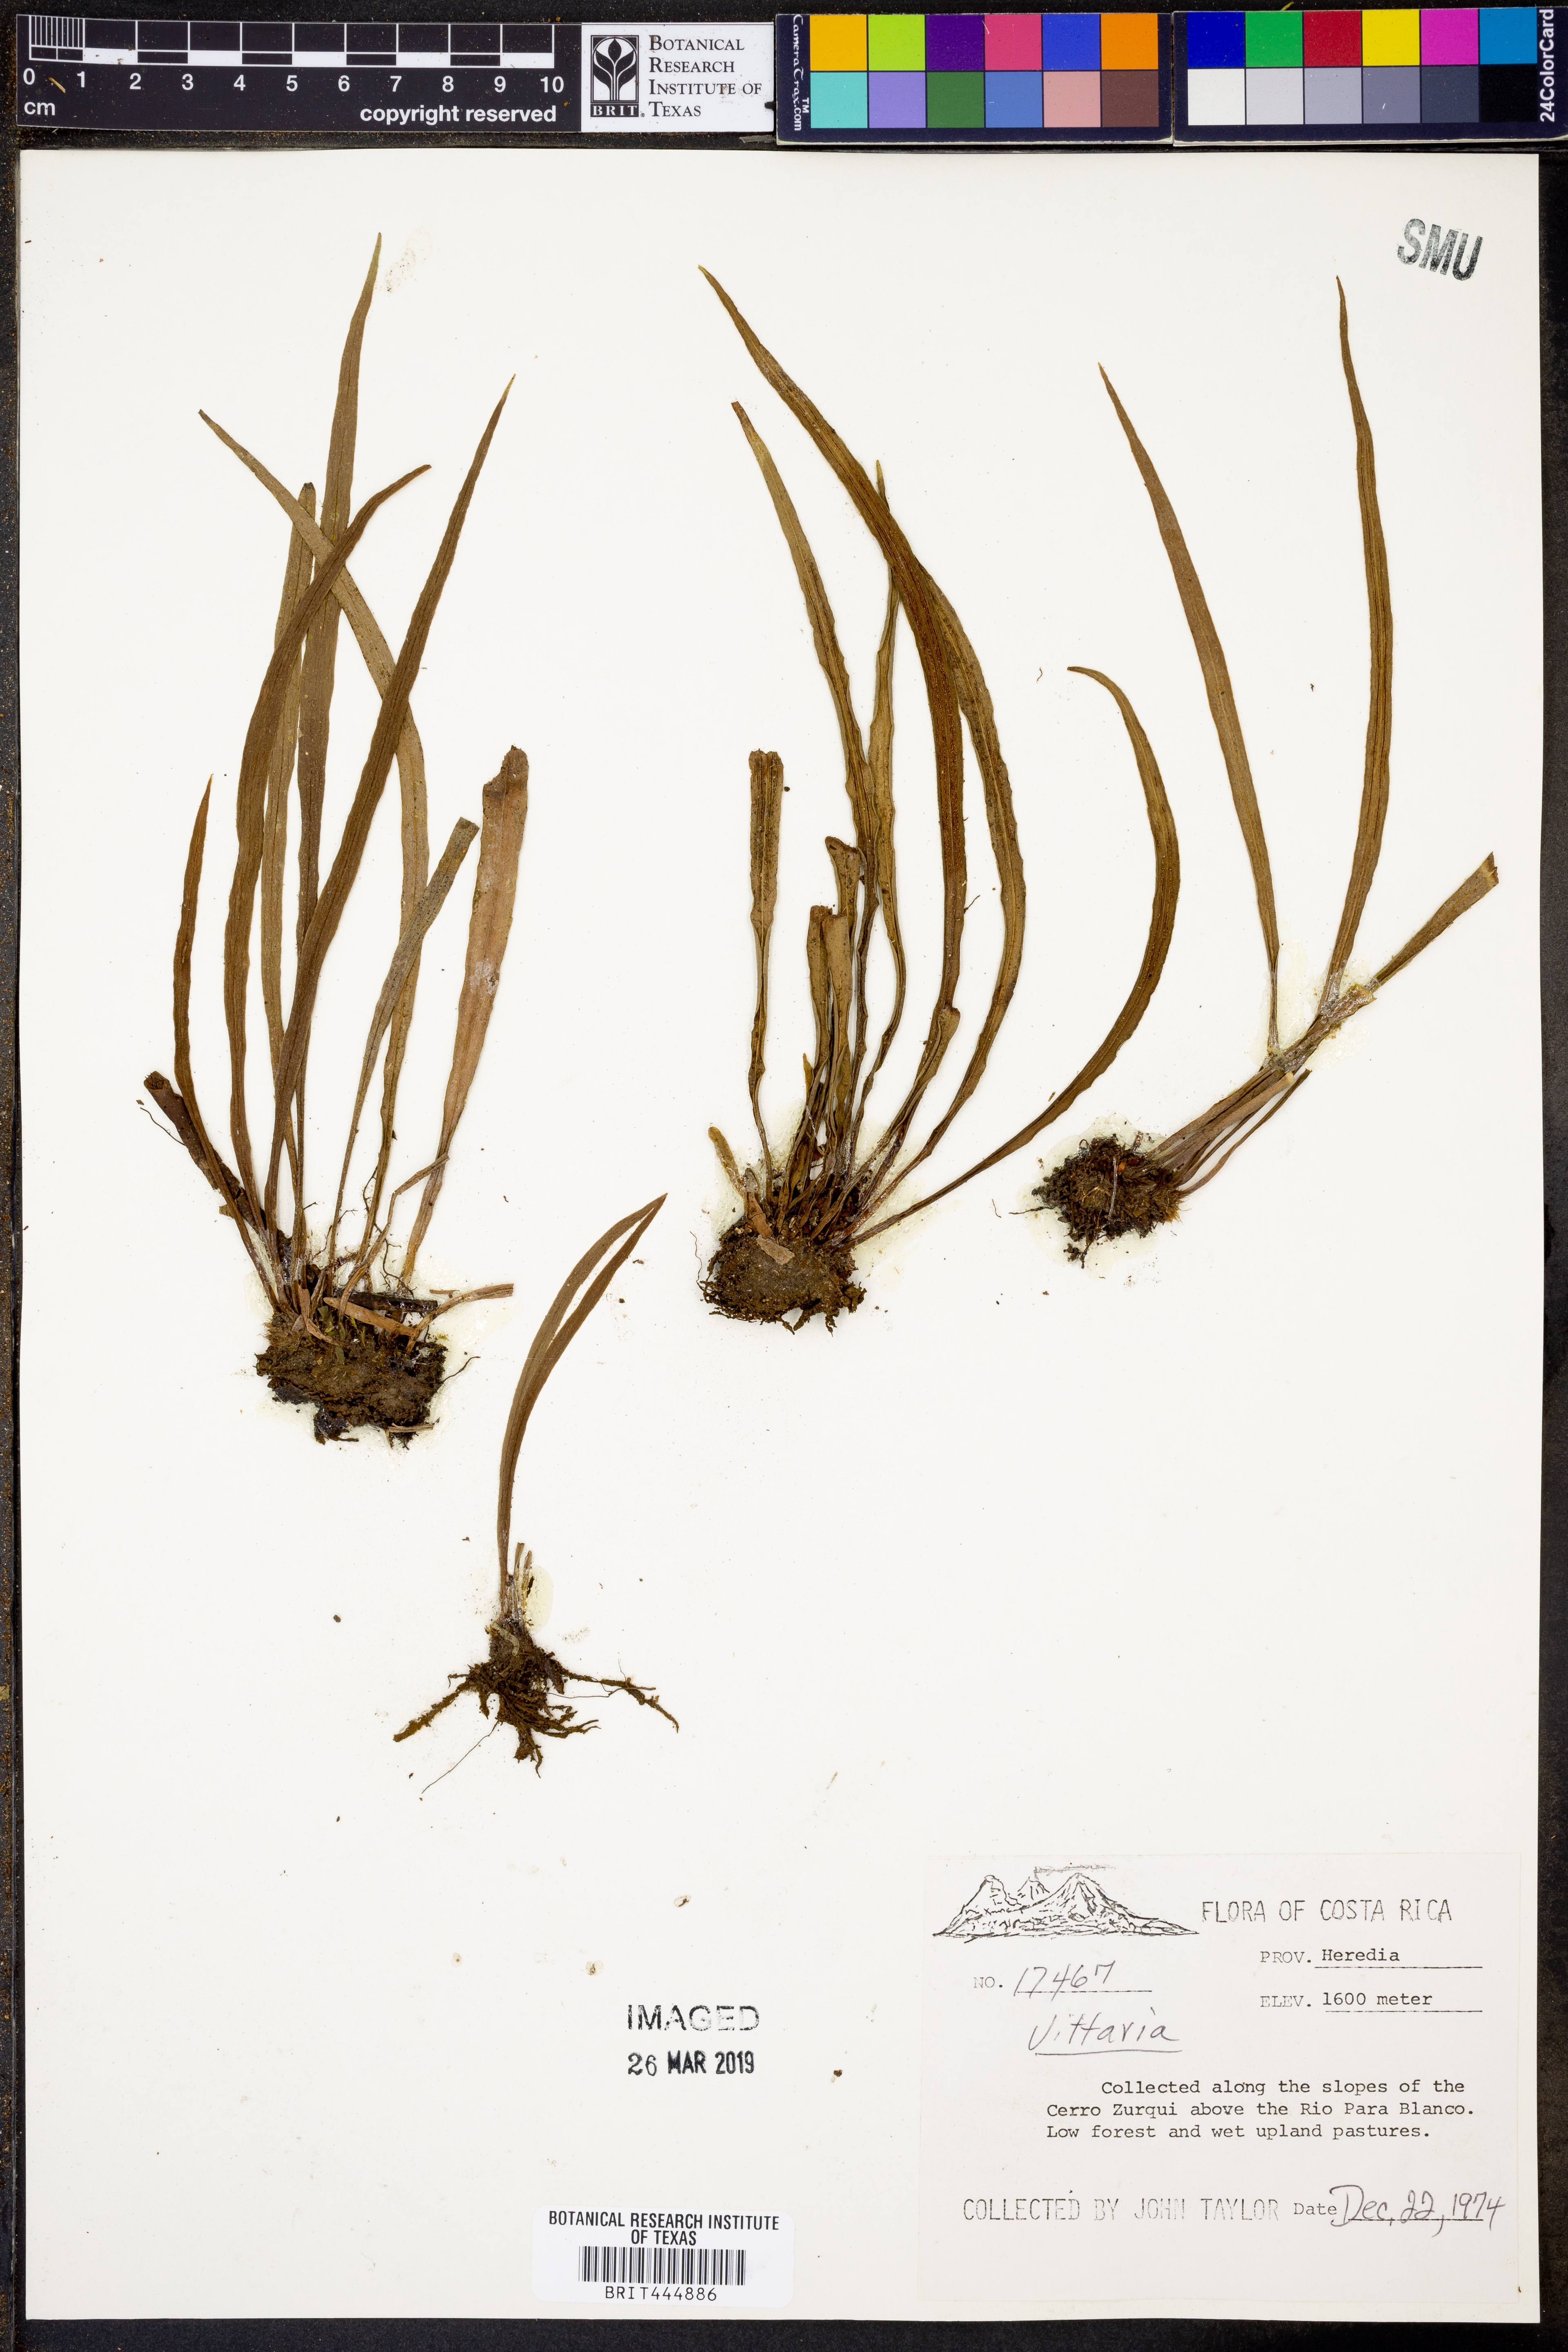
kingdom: Plantae
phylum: Tracheophyta
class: Polypodiopsida
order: Polypodiales
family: Pteridaceae
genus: Vittaria
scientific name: Vittaria
